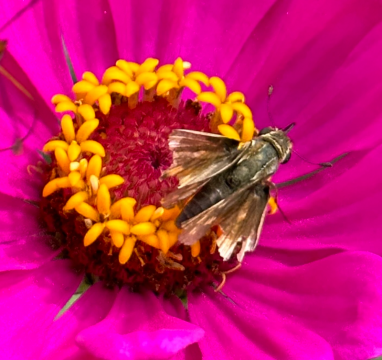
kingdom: Animalia
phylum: Arthropoda
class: Insecta
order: Lepidoptera
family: Hesperiidae
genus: Hylephila
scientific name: Hylephila phyleus
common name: Fiery Skipper
